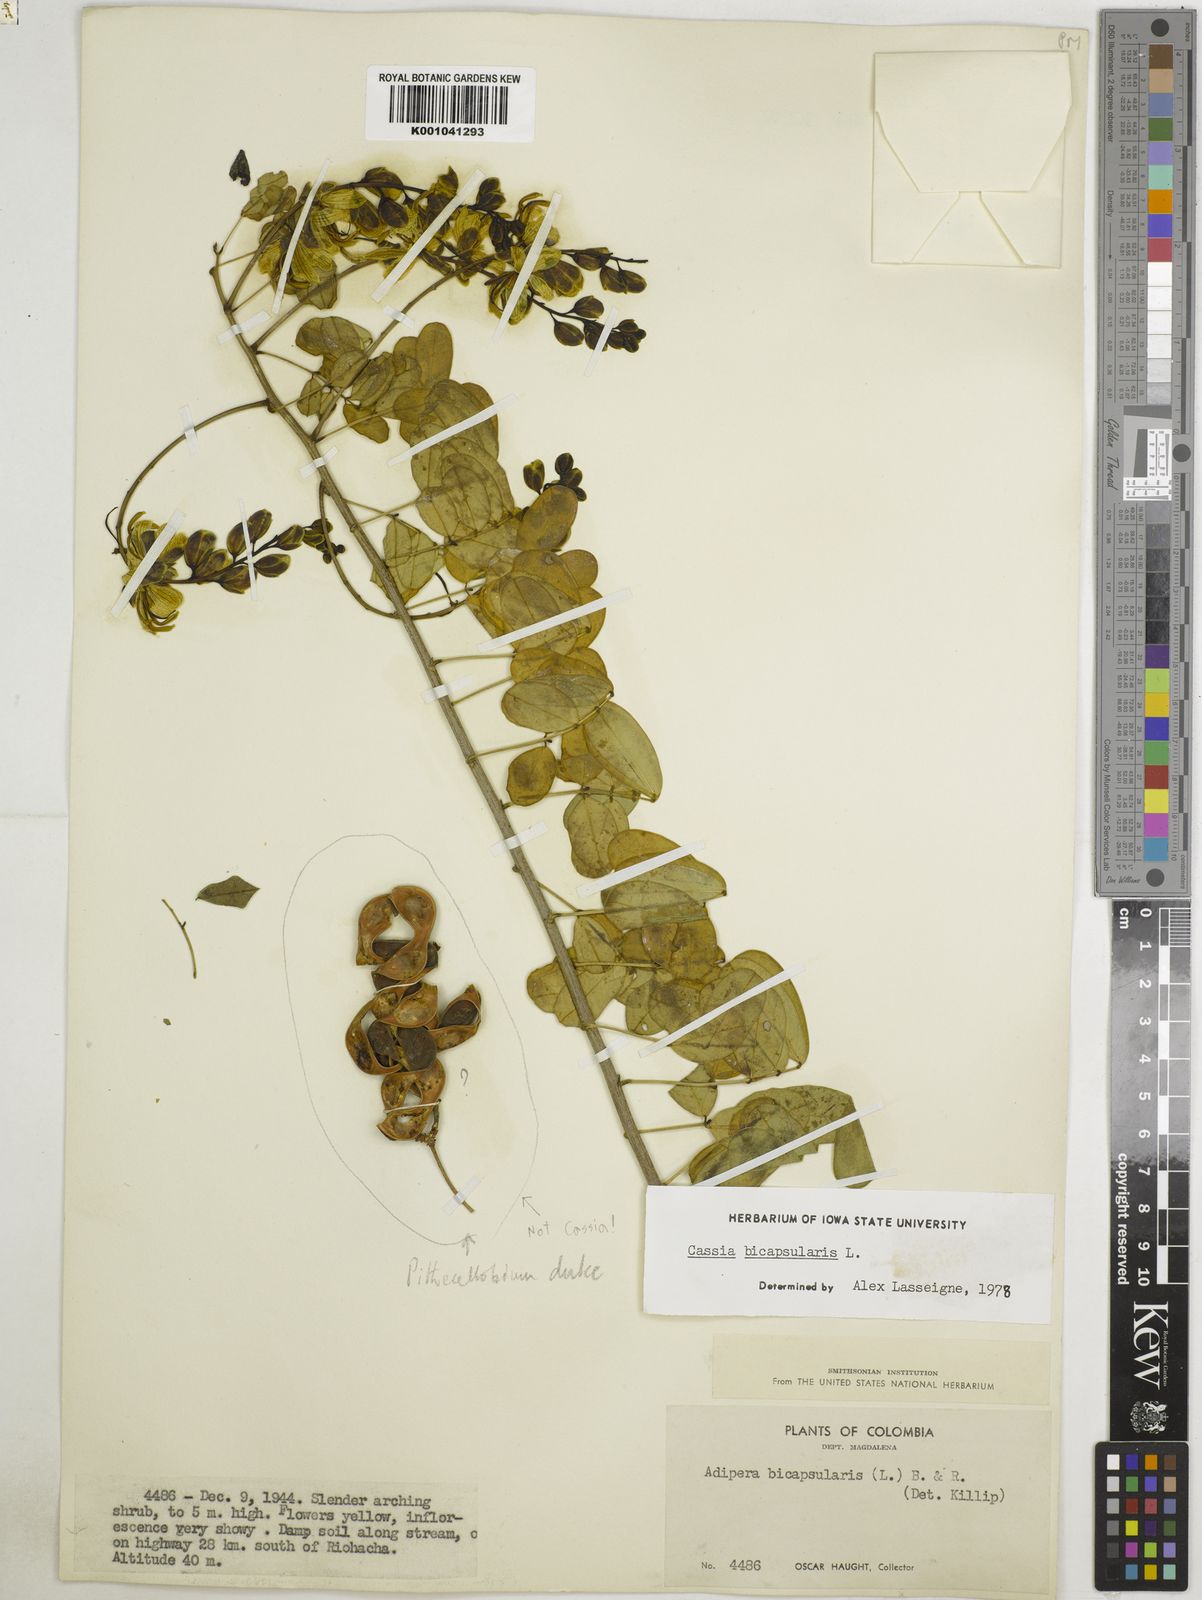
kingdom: Plantae
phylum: Tracheophyta
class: Magnoliopsida
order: Fabales
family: Fabaceae
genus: Senna
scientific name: Senna bicapsularis
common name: Christmasbush
